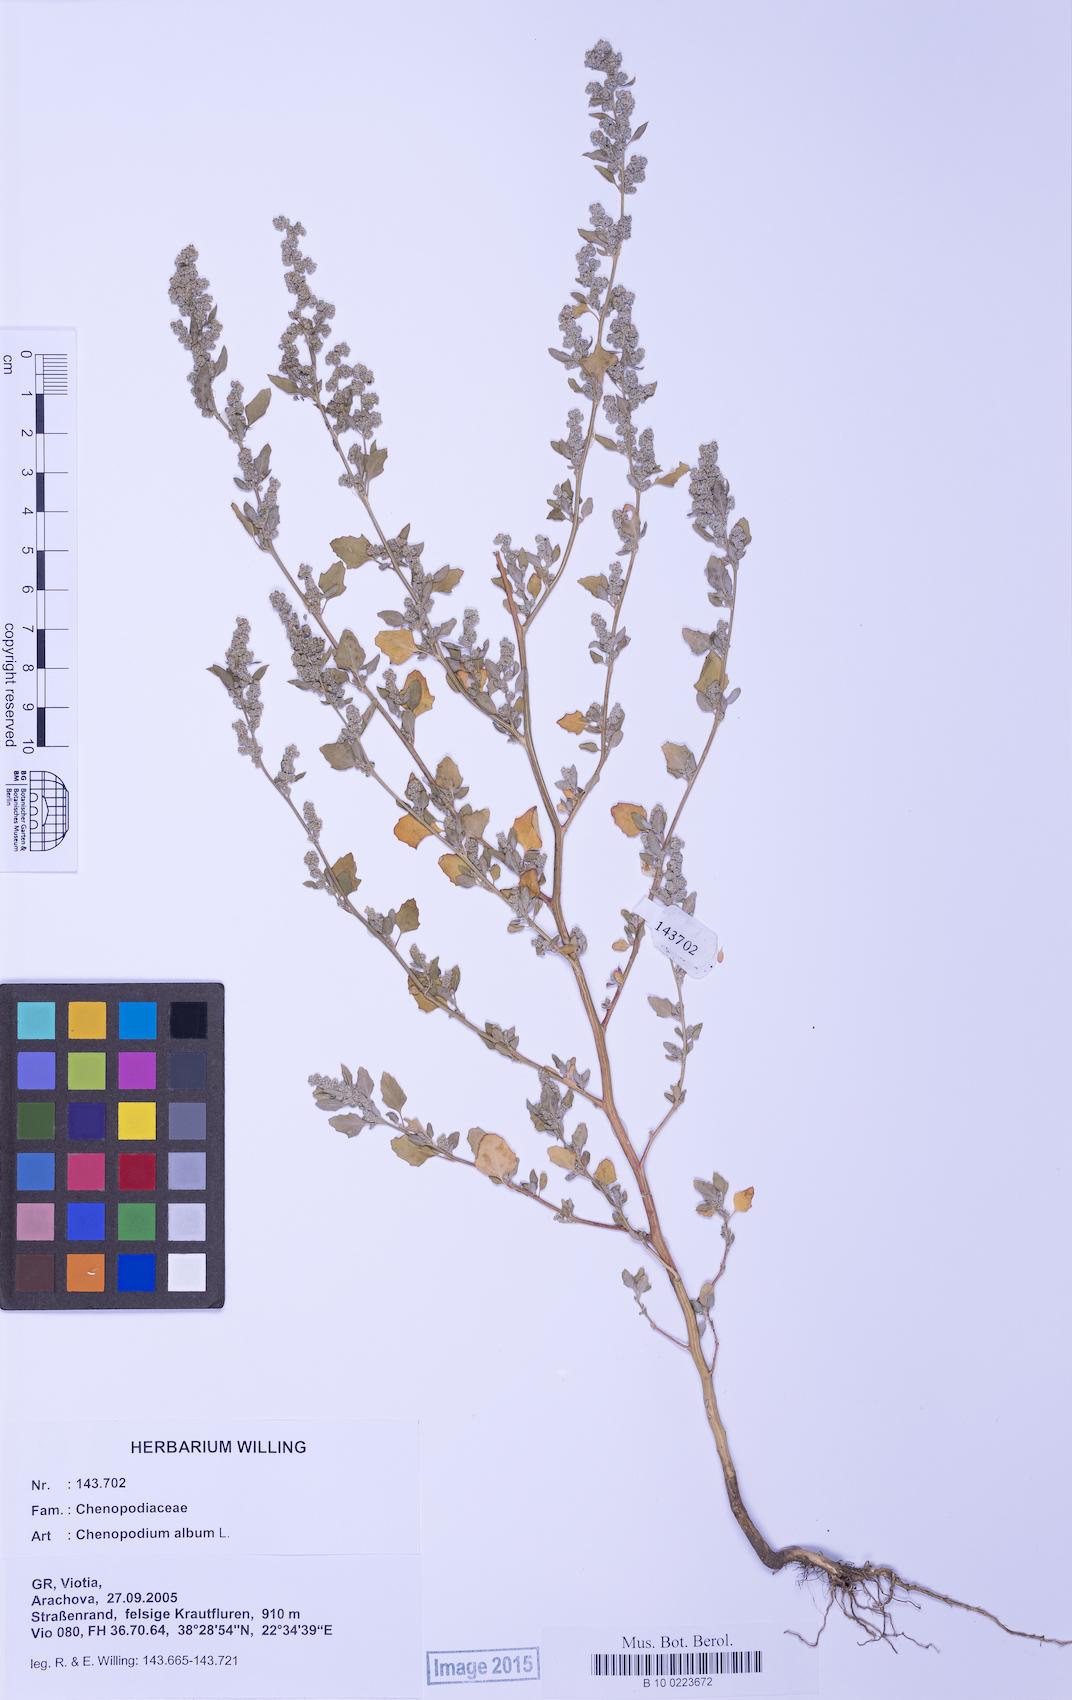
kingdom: Plantae
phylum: Tracheophyta
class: Magnoliopsida
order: Caryophyllales
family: Amaranthaceae
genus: Chenopodium
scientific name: Chenopodium opulifolium
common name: Grey goosefoot
